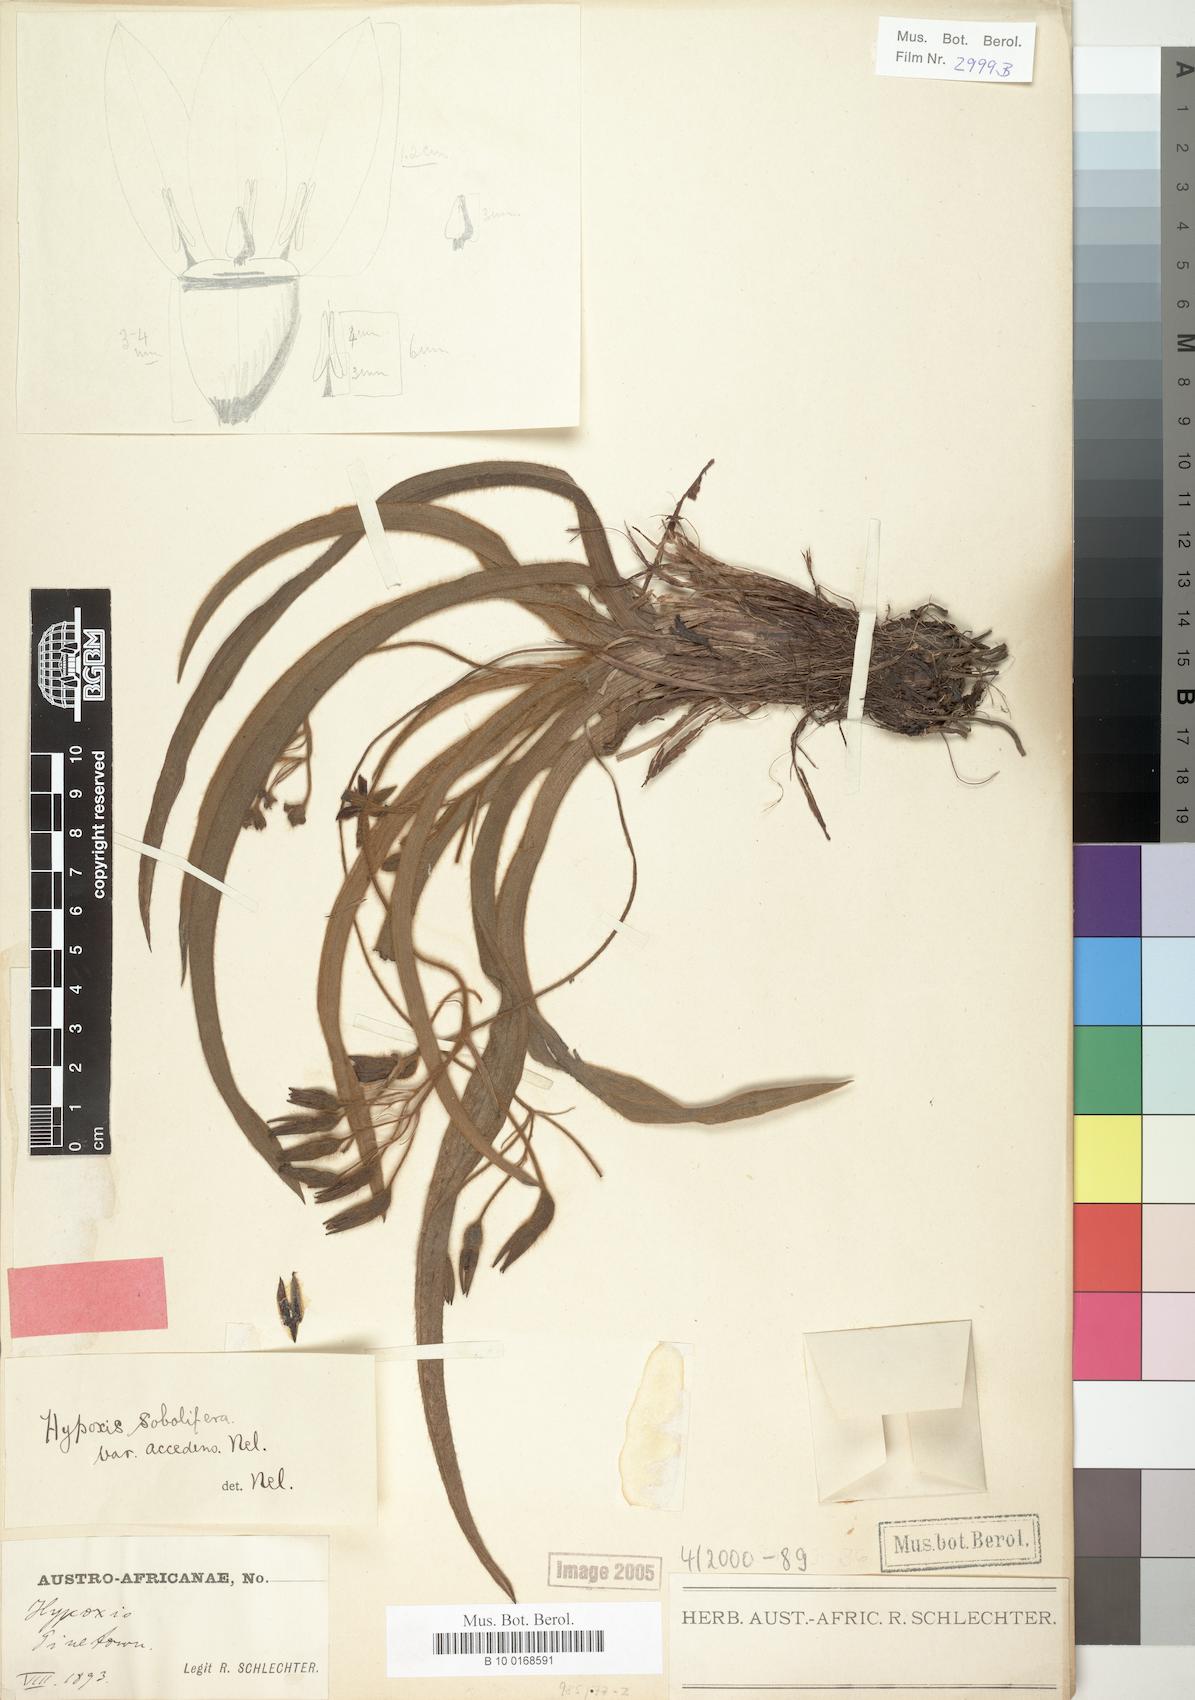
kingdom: Plantae
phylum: Tracheophyta
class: Liliopsida
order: Asparagales
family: Hypoxidaceae
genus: Hypoxis
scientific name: Hypoxis sobolifera
